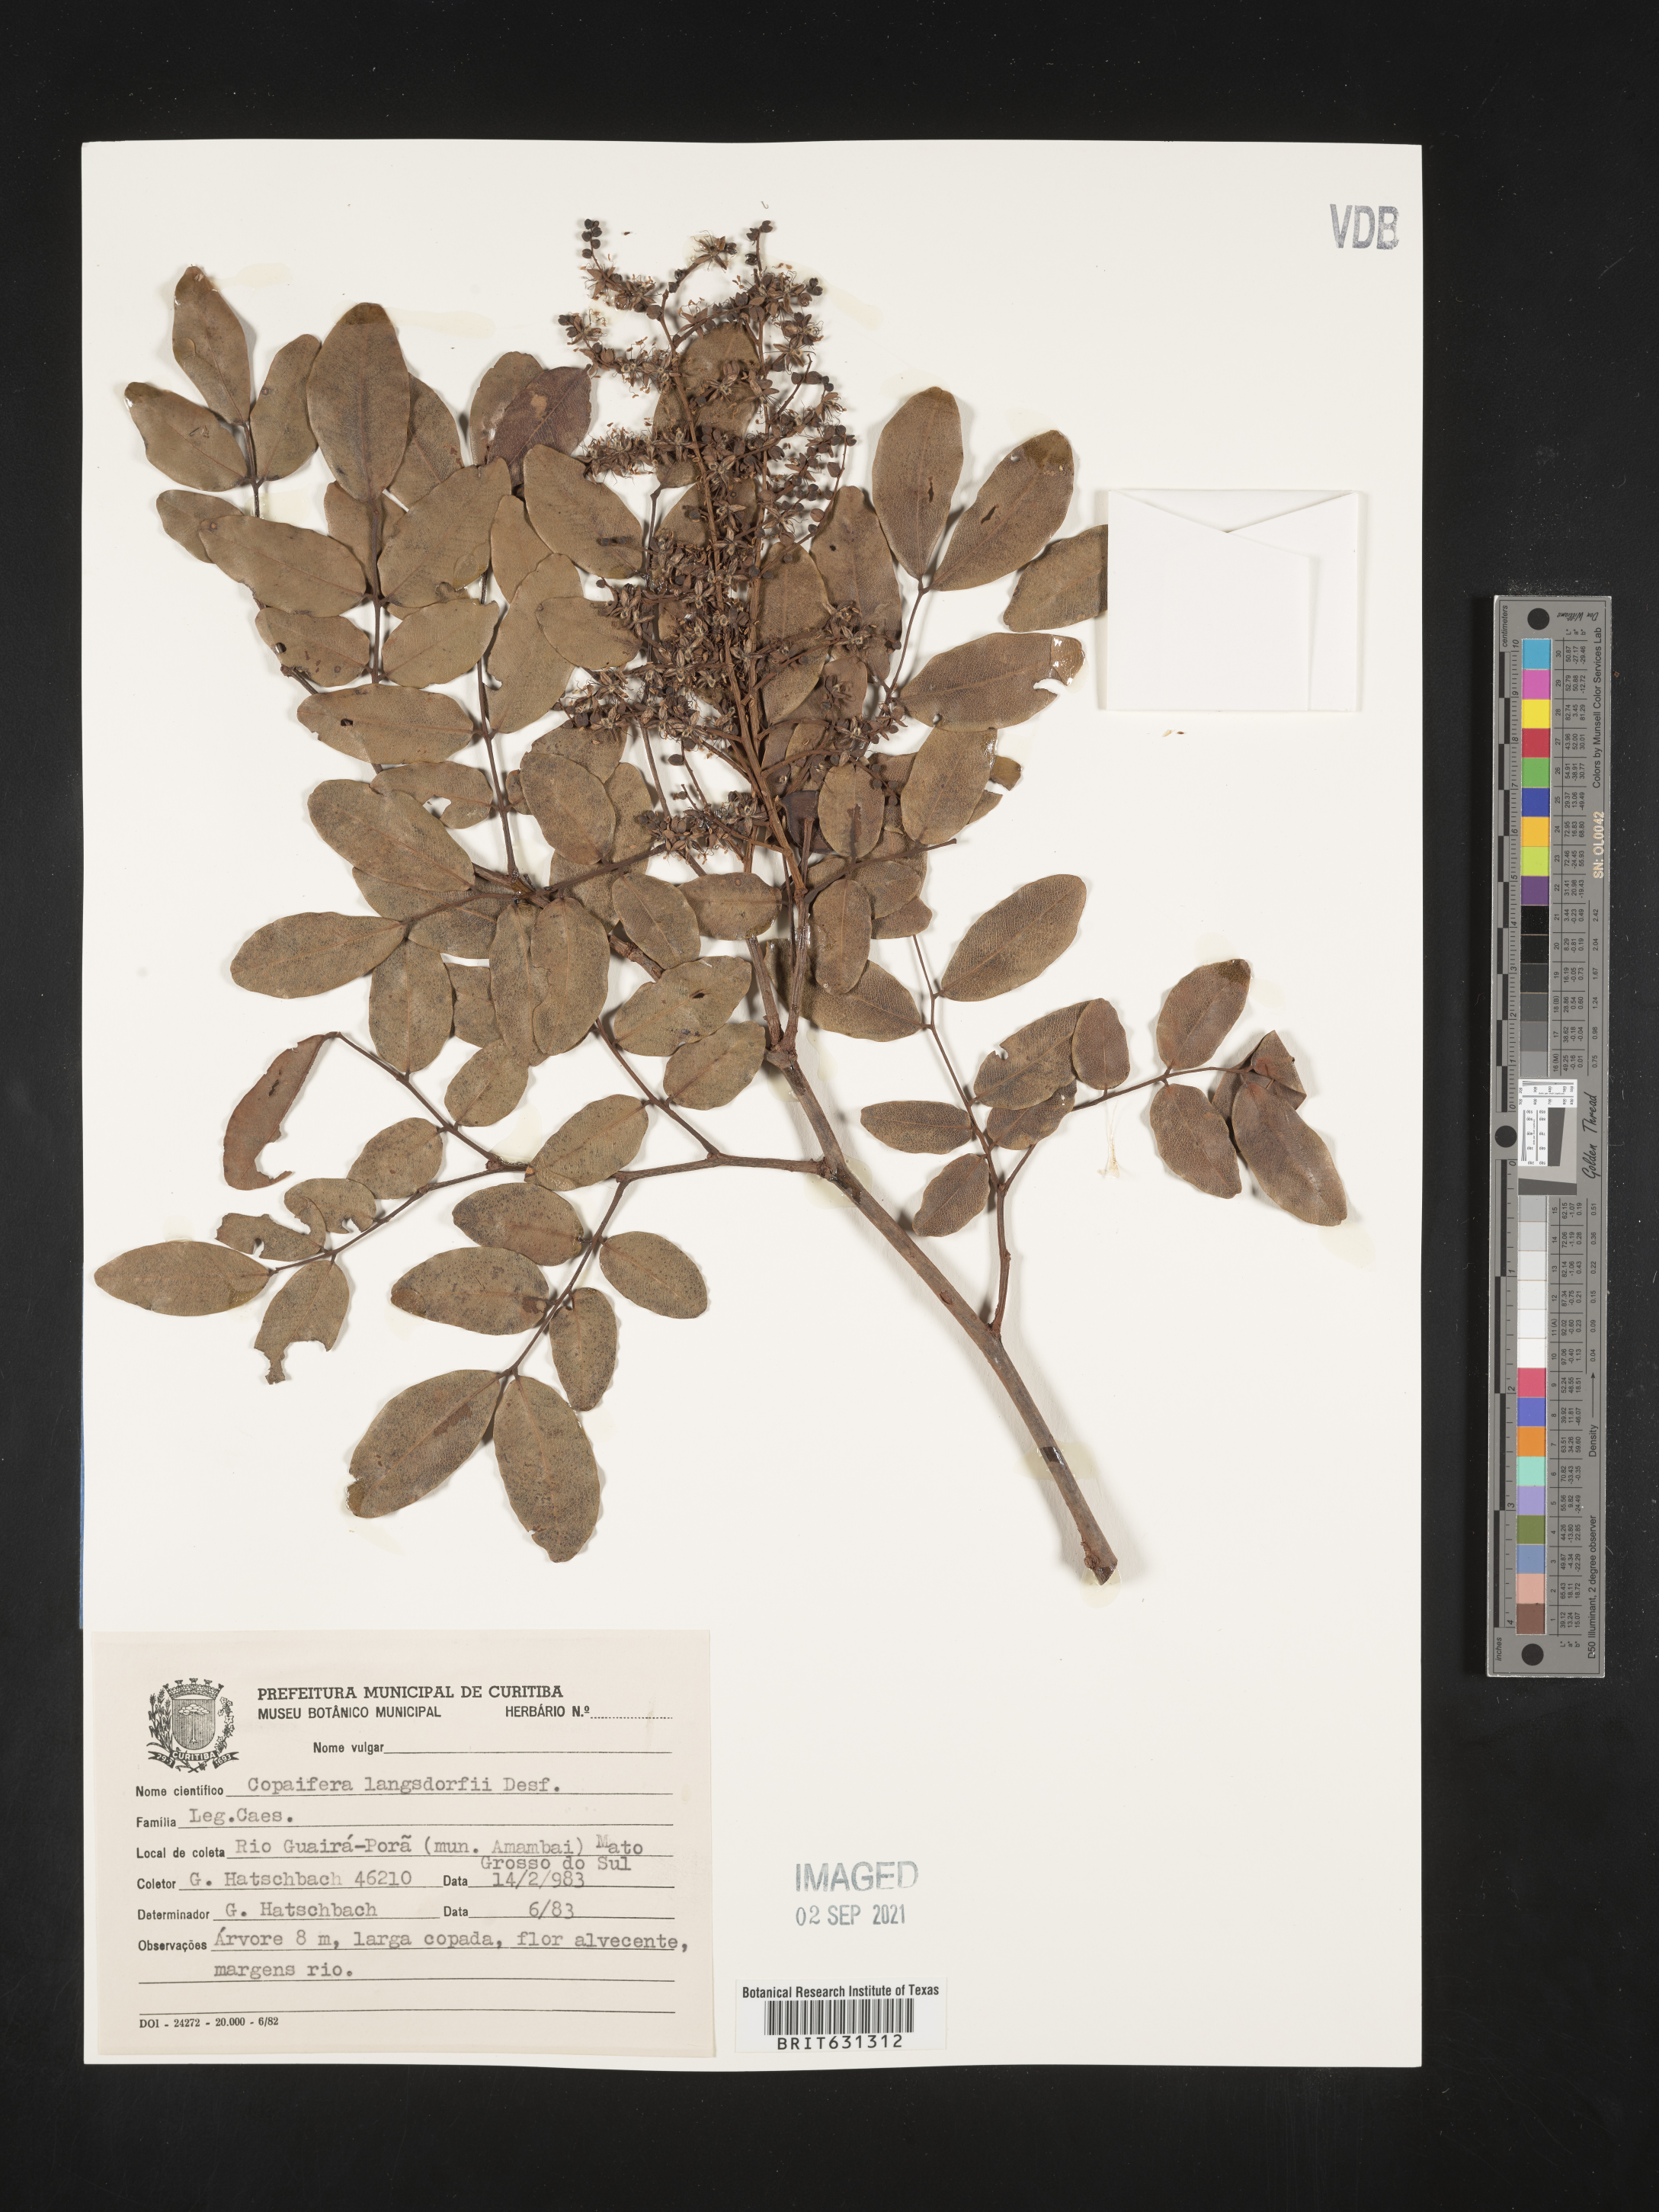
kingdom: Plantae
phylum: Tracheophyta
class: Magnoliopsida
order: Fabales
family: Fabaceae
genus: Copaifera
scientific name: Copaifera langsdorffii
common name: Brazilian diesel tree
